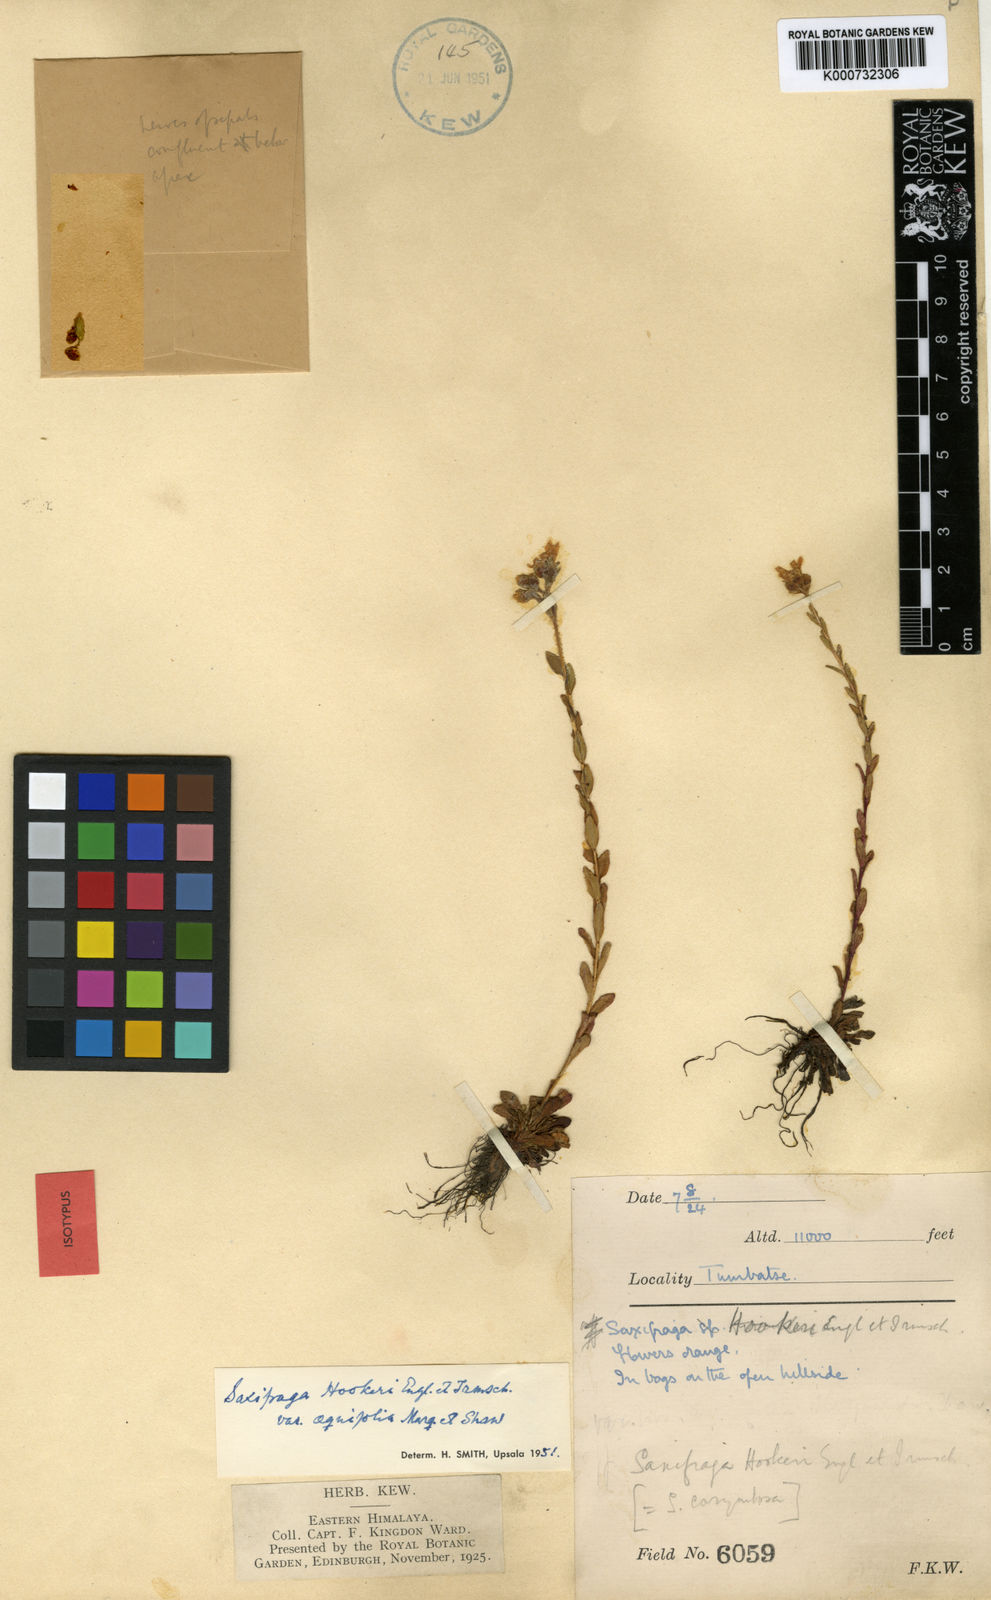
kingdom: Plantae
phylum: Tracheophyta
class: Magnoliopsida
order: Saxifragales
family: Saxifragaceae
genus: Saxifraga
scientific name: Saxifraga hookeri
